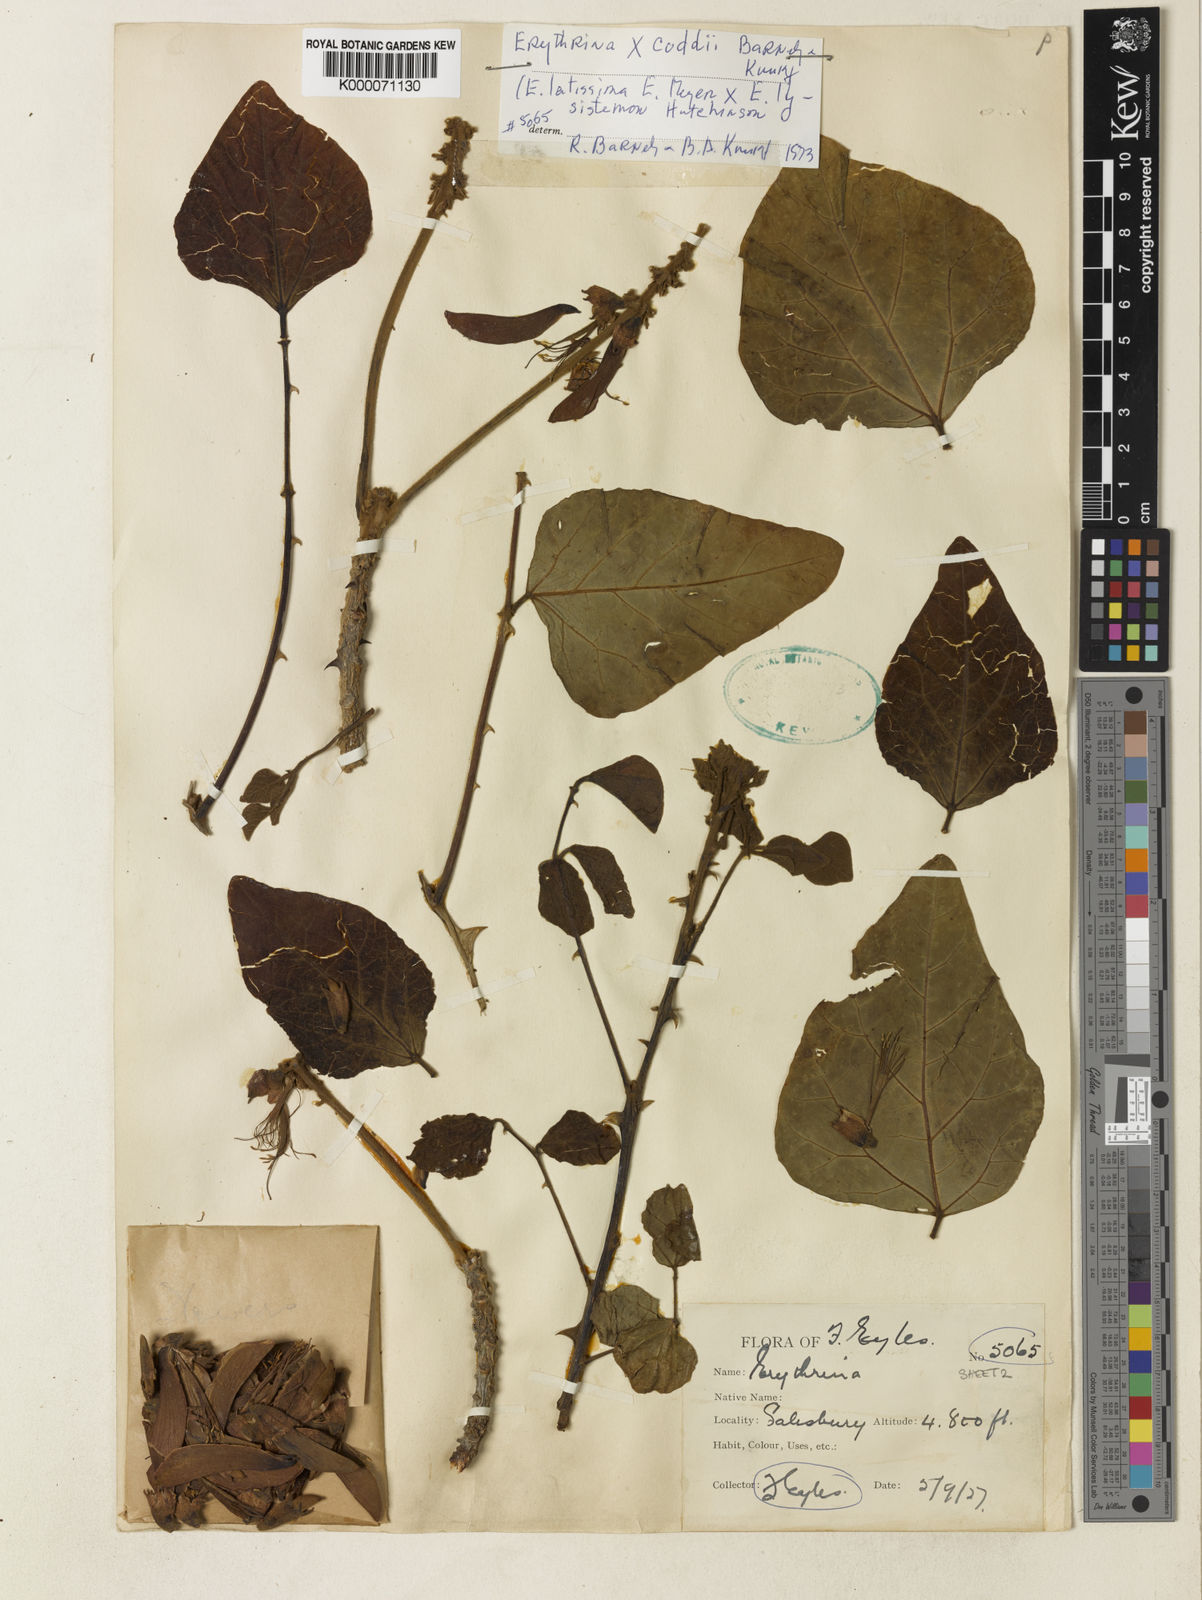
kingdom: Plantae
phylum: Tracheophyta
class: Magnoliopsida
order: Fabales
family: Fabaceae
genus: Erythrina
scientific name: Erythrina coddii
